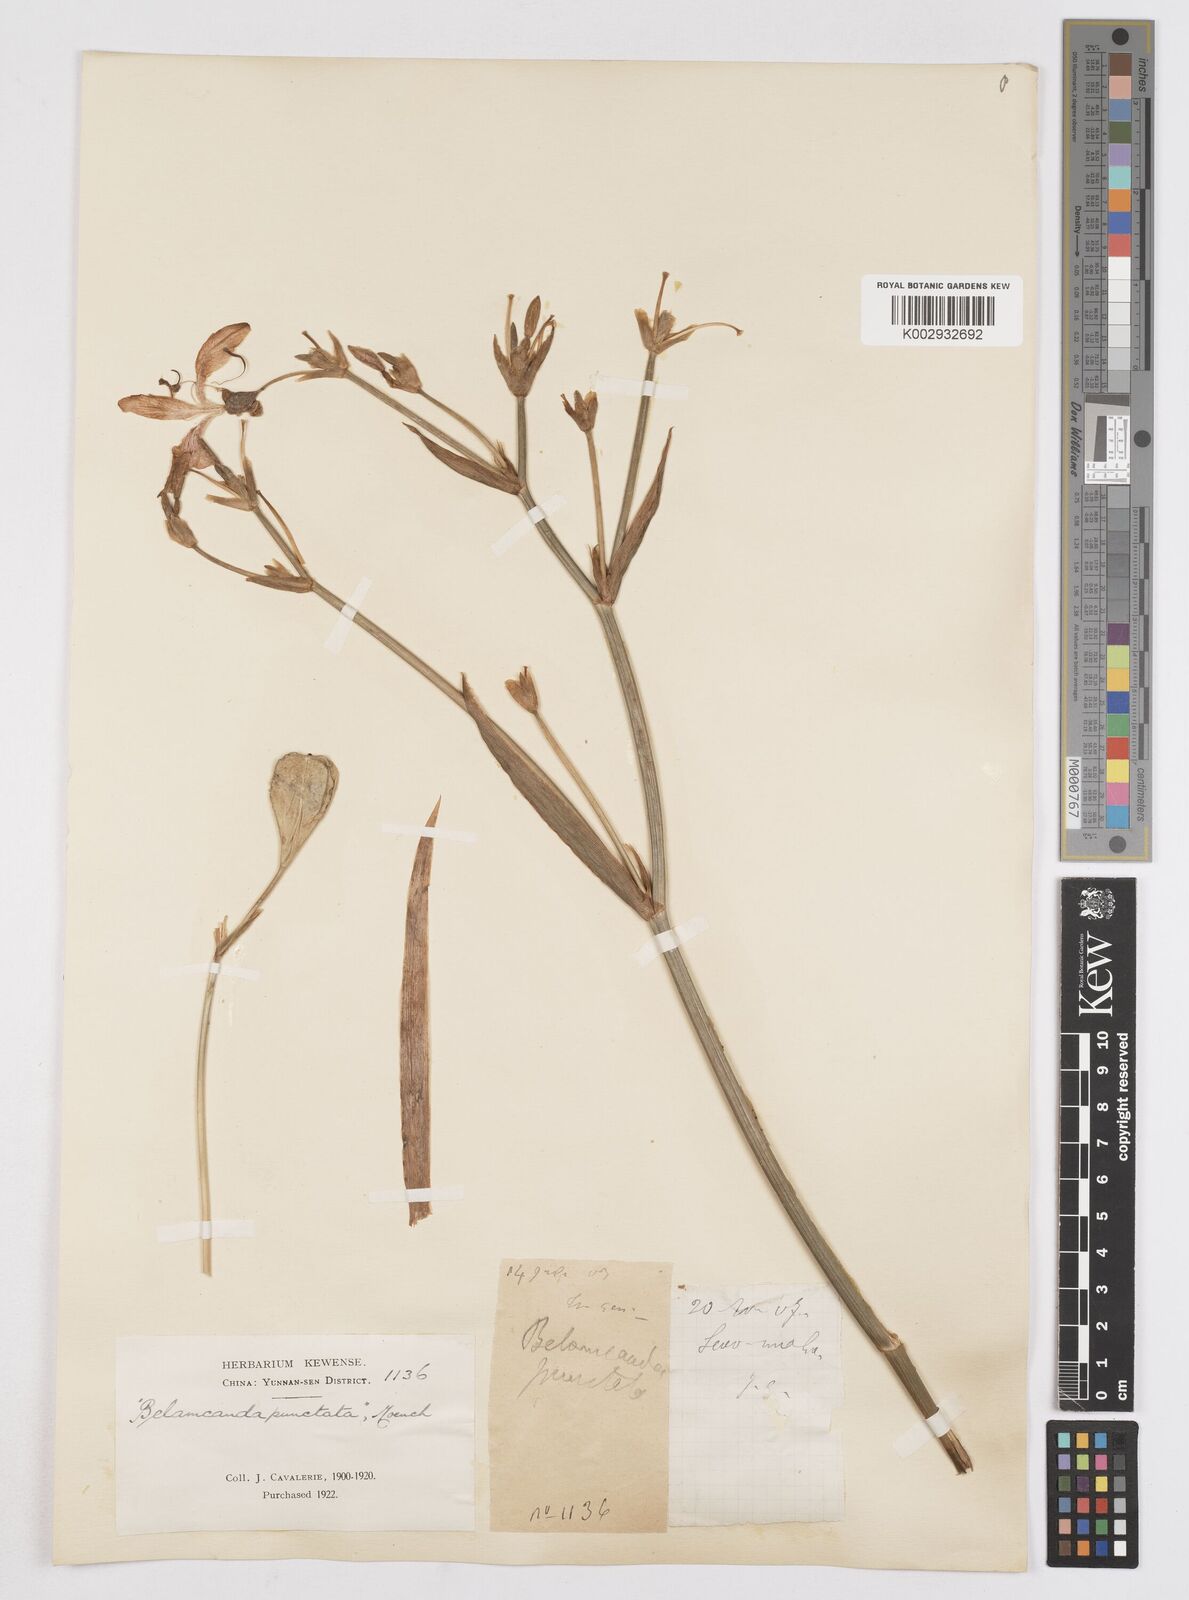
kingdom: Plantae
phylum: Tracheophyta
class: Liliopsida
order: Asparagales
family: Iridaceae
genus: Iris
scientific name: Iris
